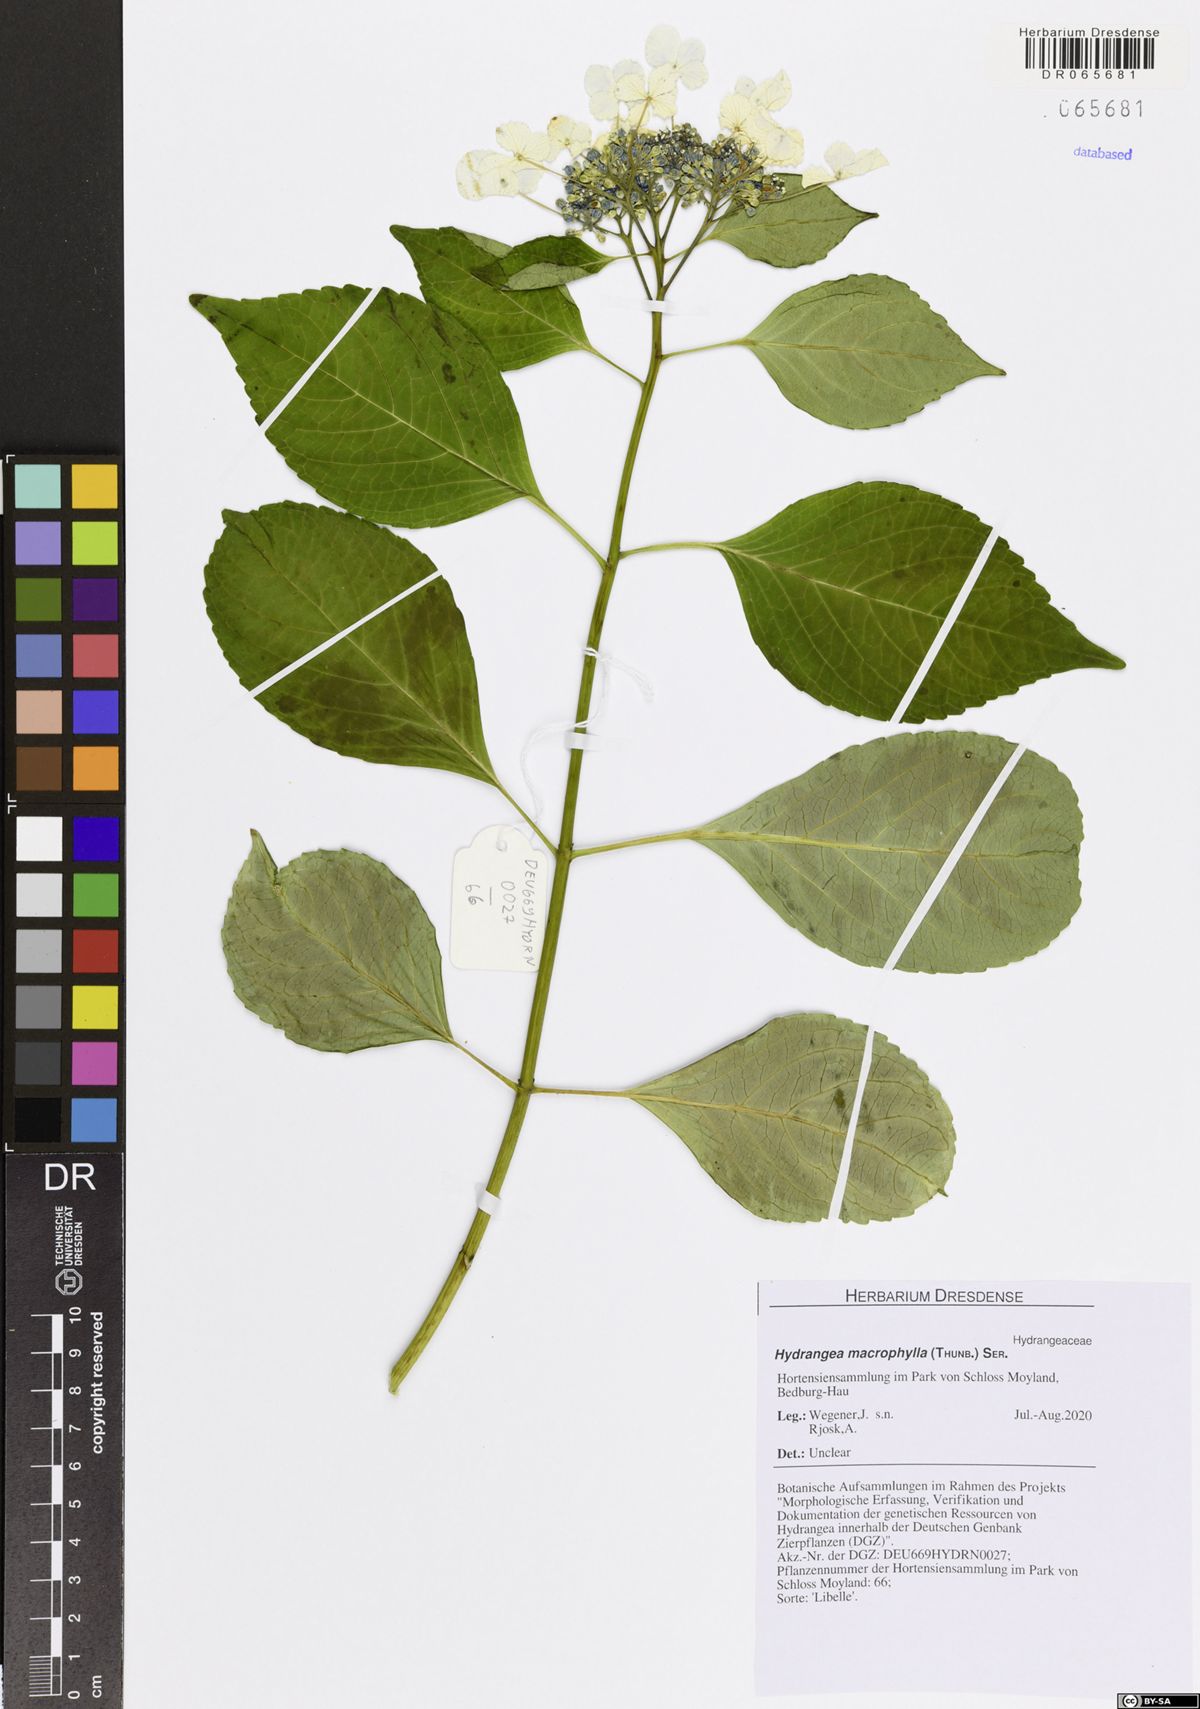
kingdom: Plantae
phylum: Tracheophyta
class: Magnoliopsida
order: Cornales
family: Hydrangeaceae
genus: Hydrangea
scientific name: Hydrangea macrophylla
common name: Hydrangea
